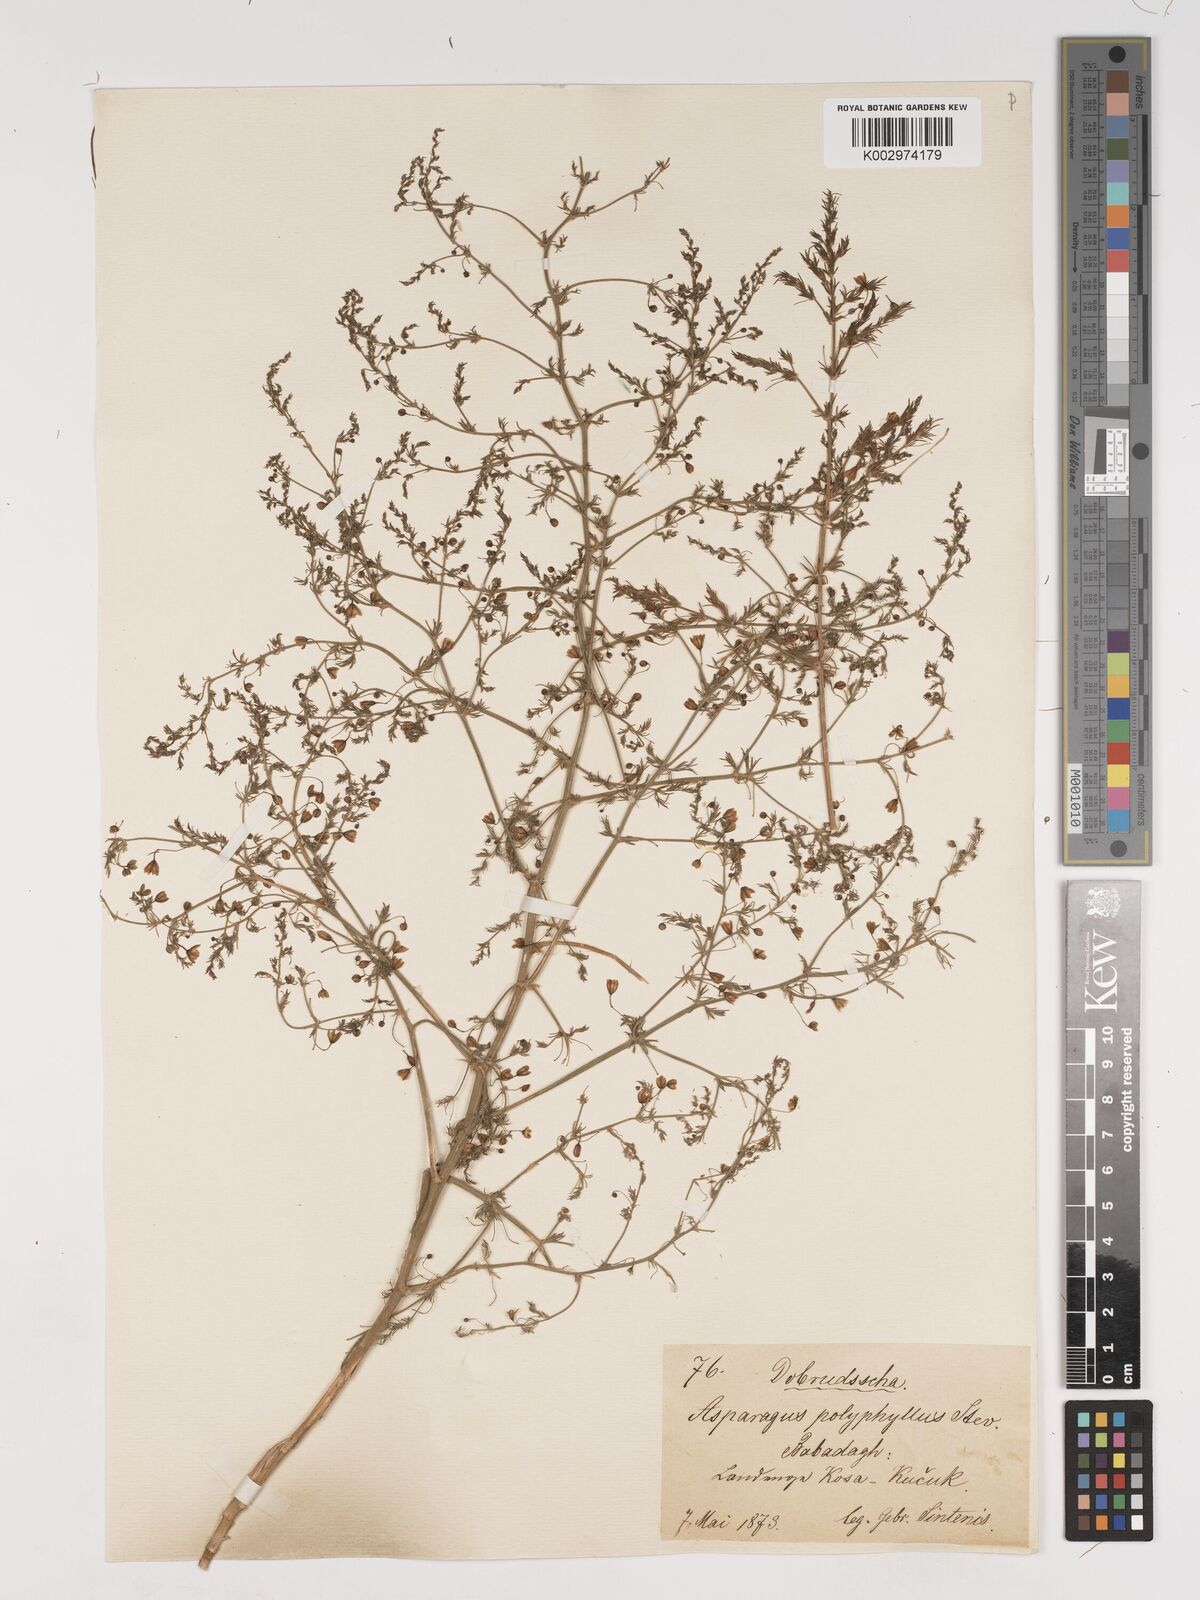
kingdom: Plantae
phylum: Tracheophyta
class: Liliopsida
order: Asparagales
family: Asparagaceae
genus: Asparagus
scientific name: Asparagus officinalis
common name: Garden asparagus
